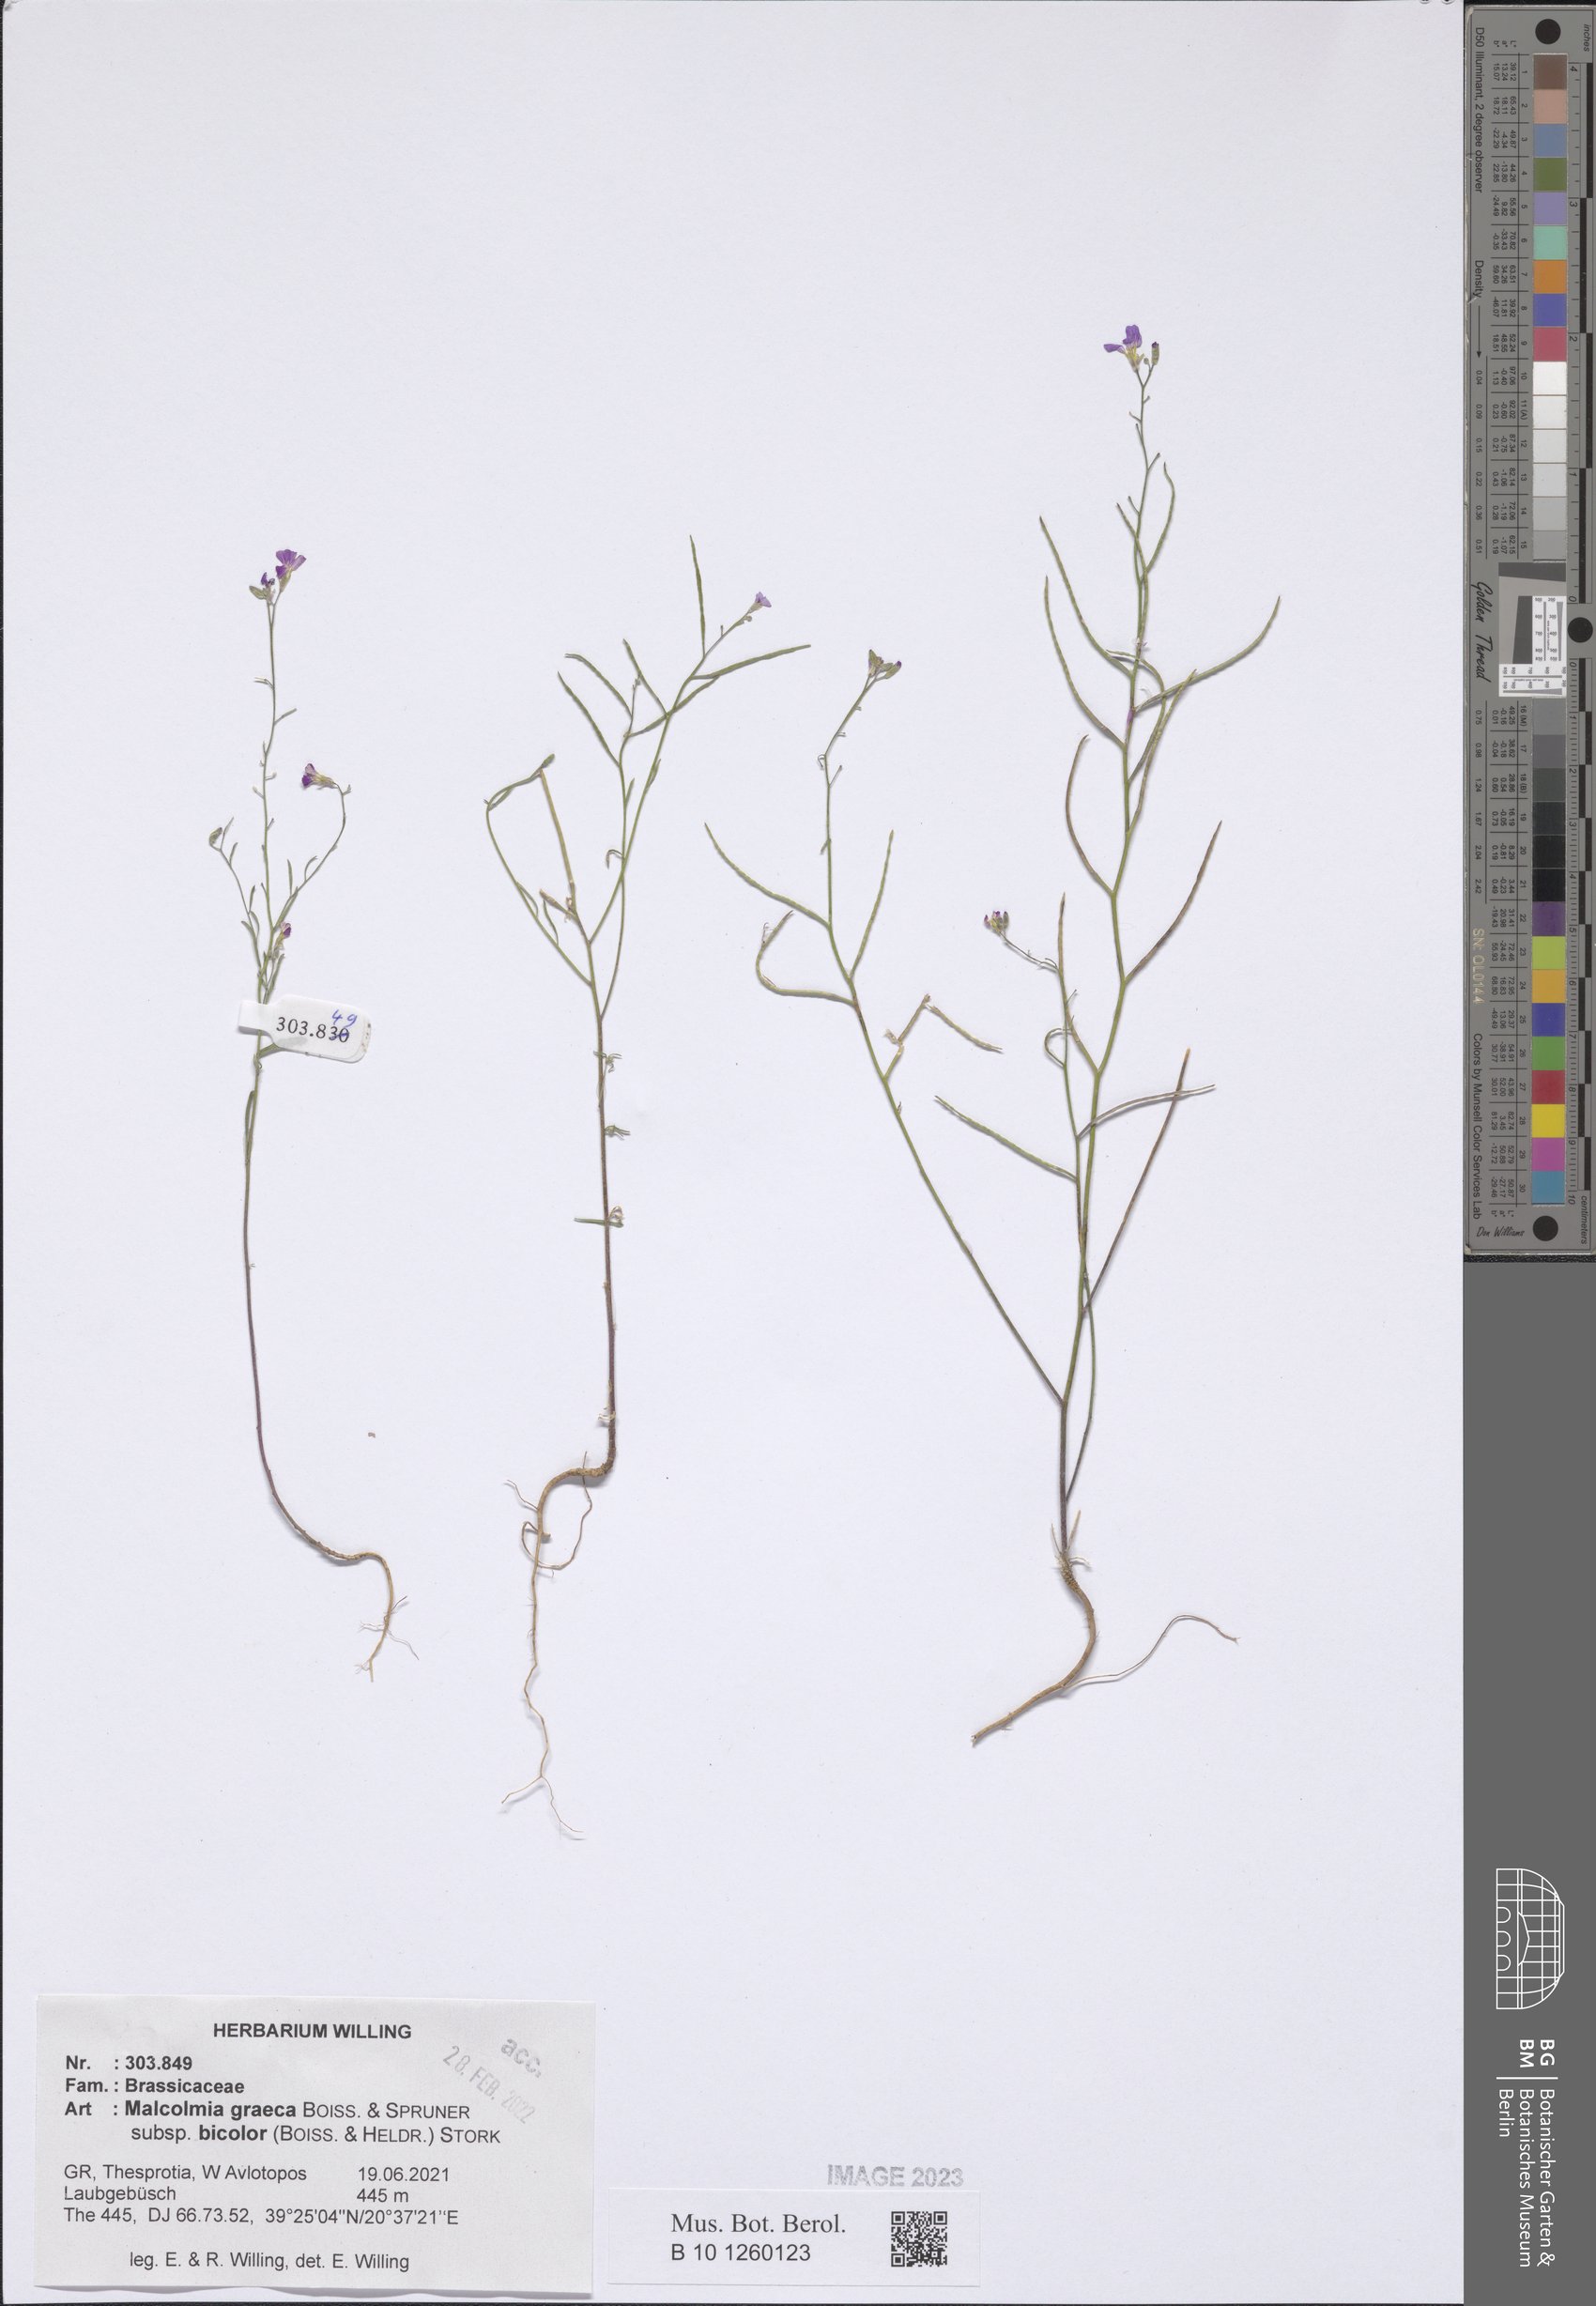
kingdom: Plantae
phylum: Tracheophyta
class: Magnoliopsida
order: Brassicales
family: Brassicaceae
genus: Malcolmia
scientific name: Malcolmia graeca
